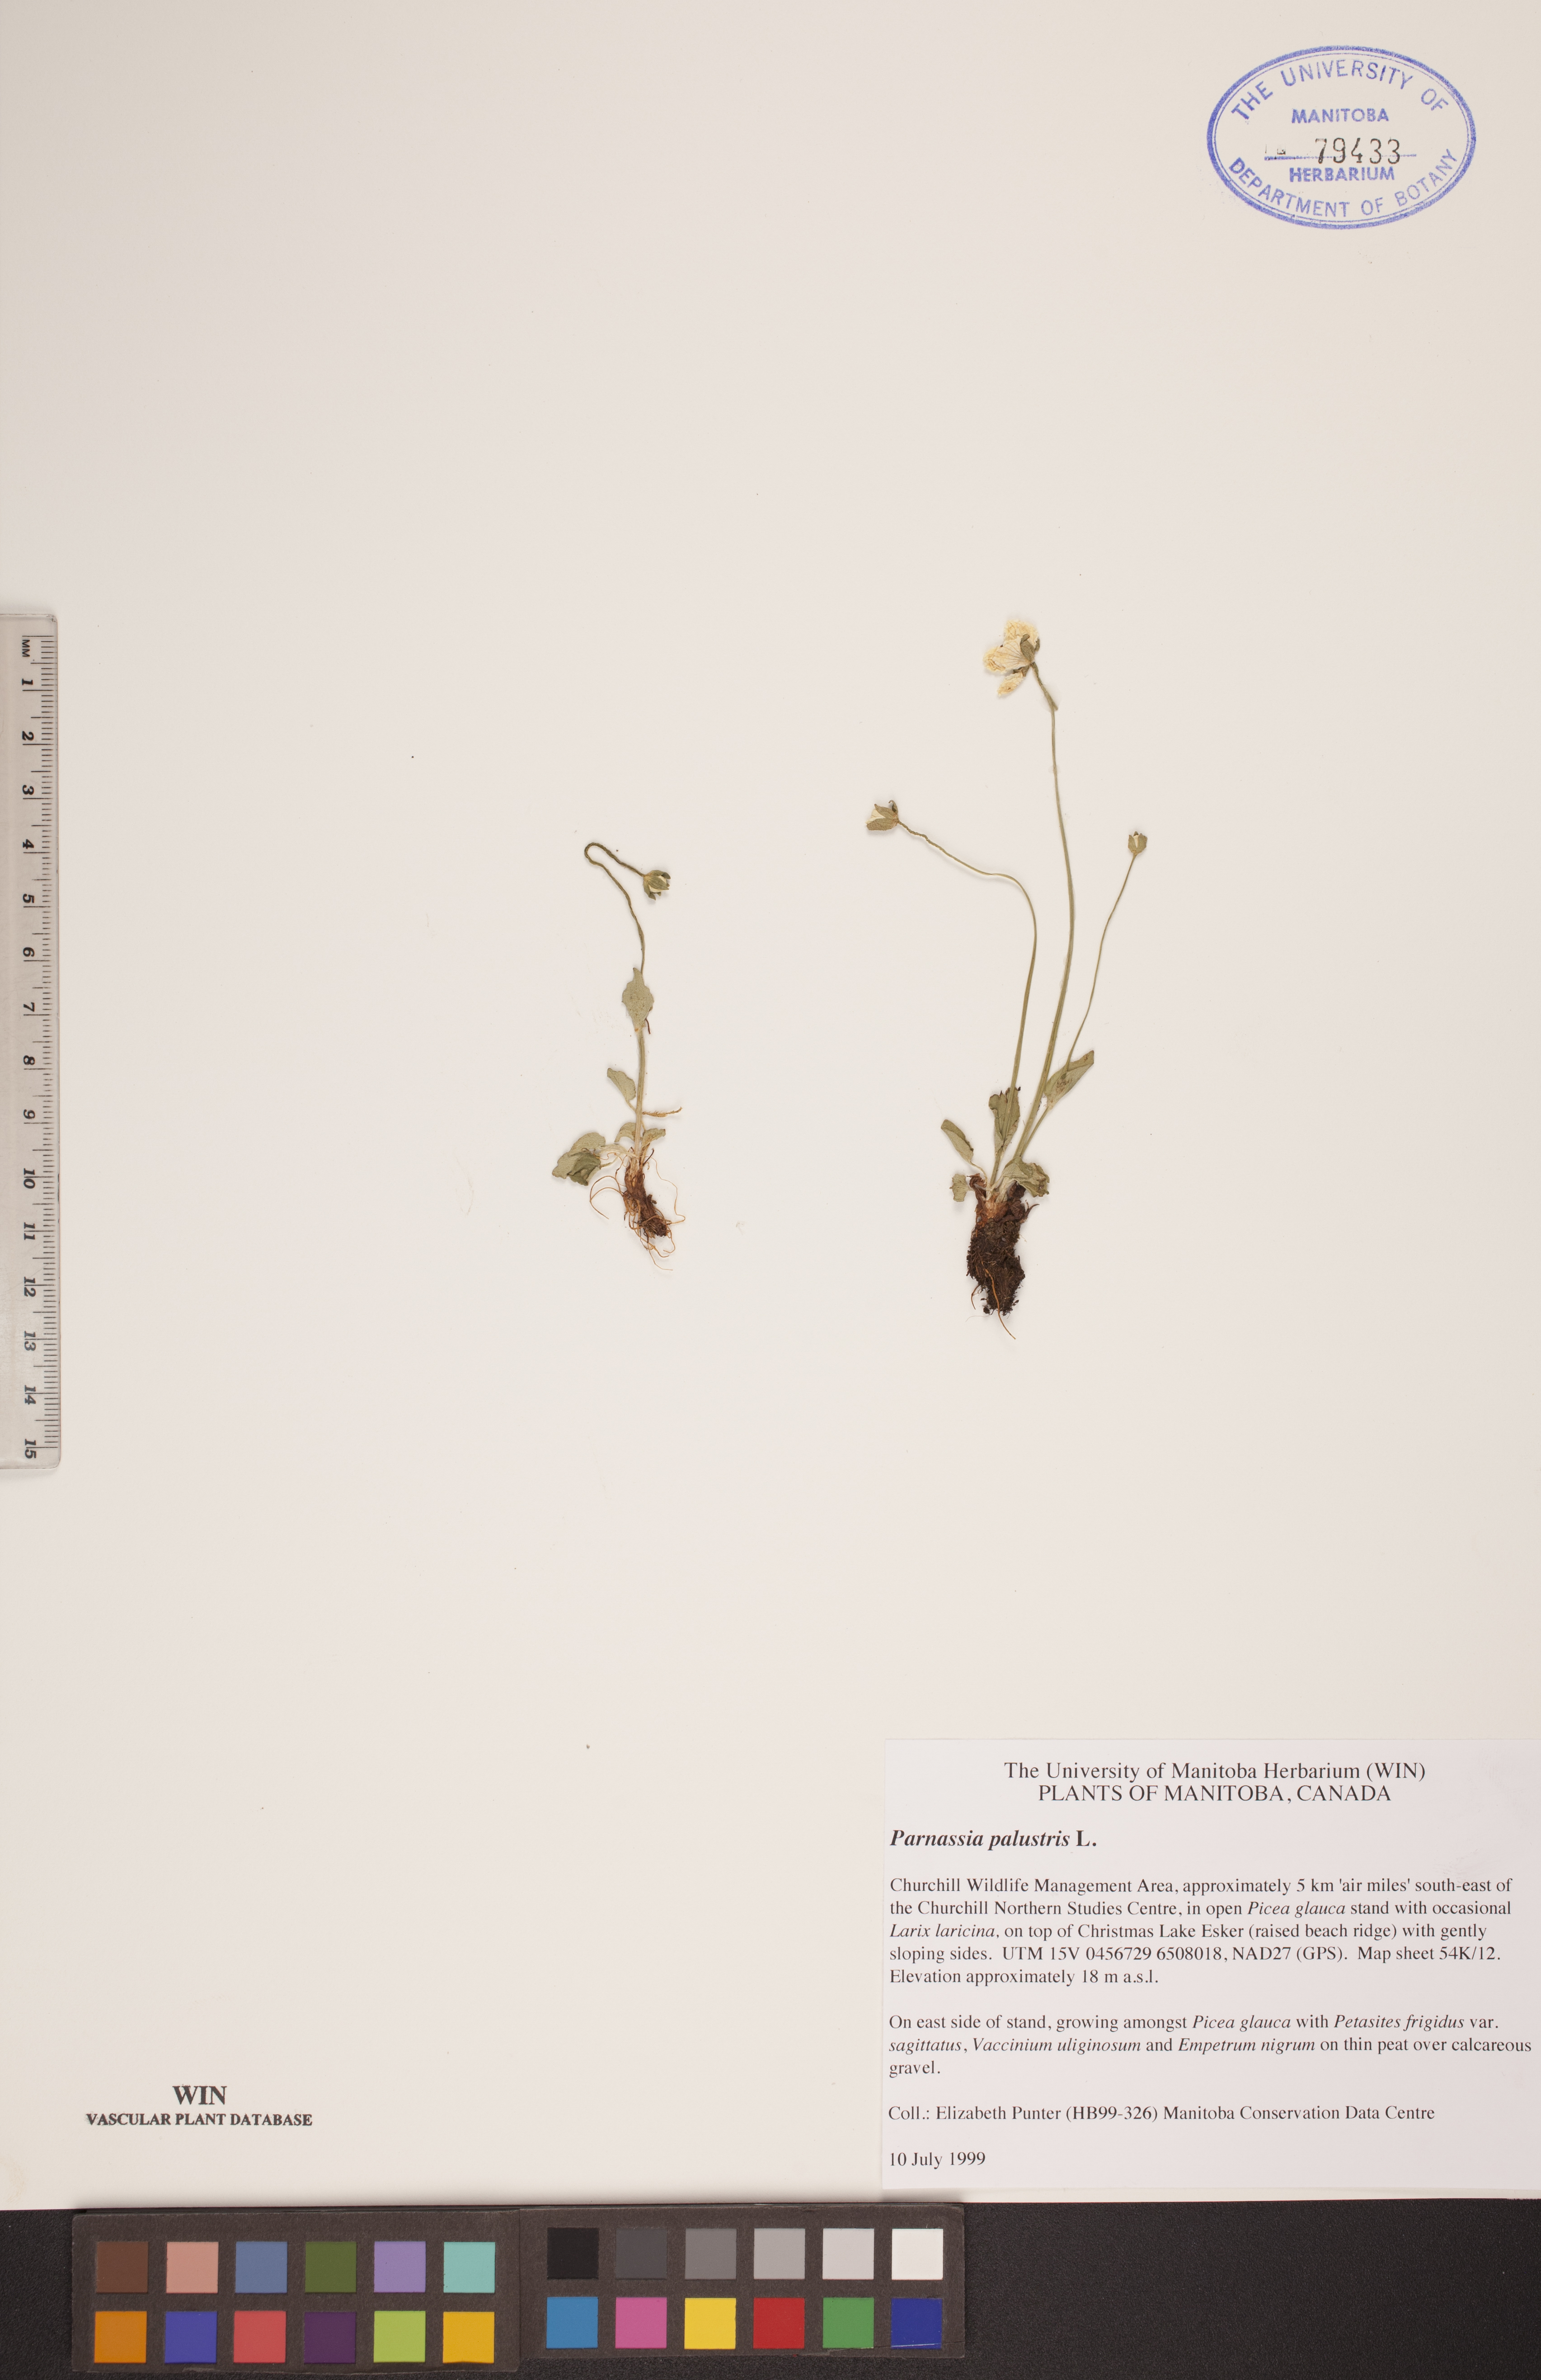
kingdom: Plantae
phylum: Tracheophyta
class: Magnoliopsida
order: Celastrales
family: Parnassiaceae
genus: Parnassia
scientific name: Parnassia palustris
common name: Grass-of-parnassus
